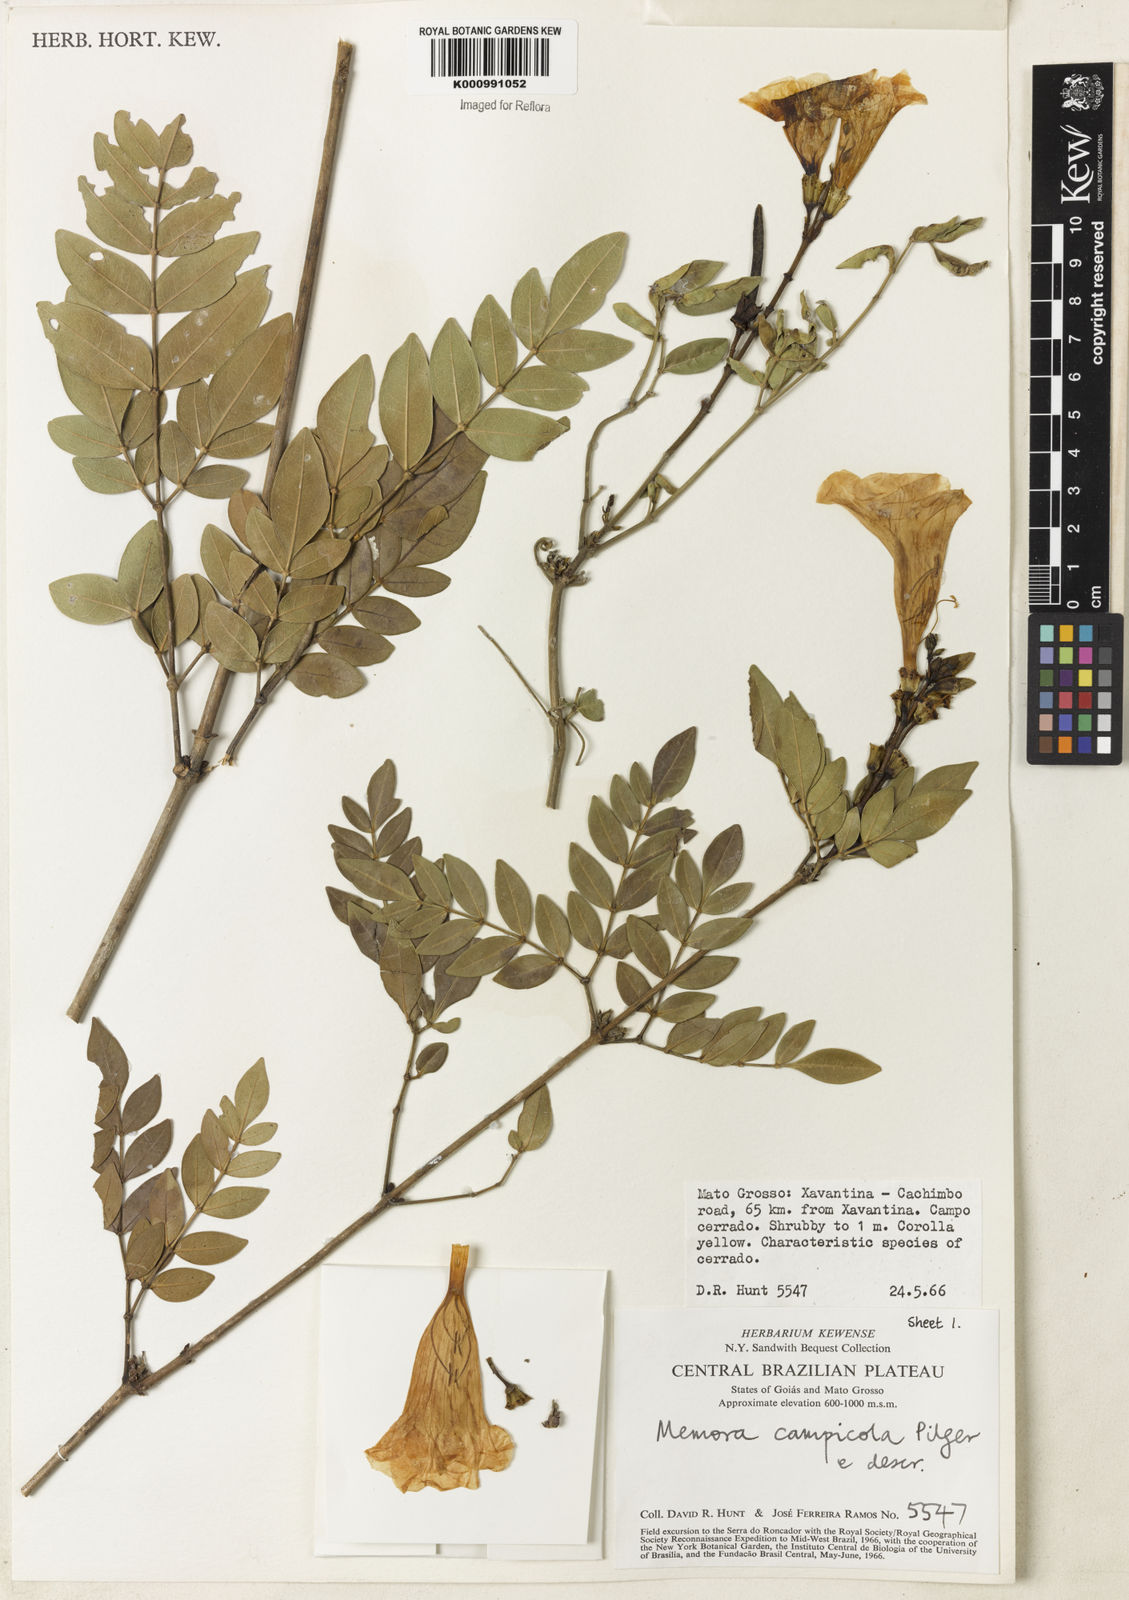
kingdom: Plantae
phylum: Tracheophyta
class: Magnoliopsida
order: Lamiales
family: Bignoniaceae
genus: Adenocalymma
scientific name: Adenocalymma campicola
